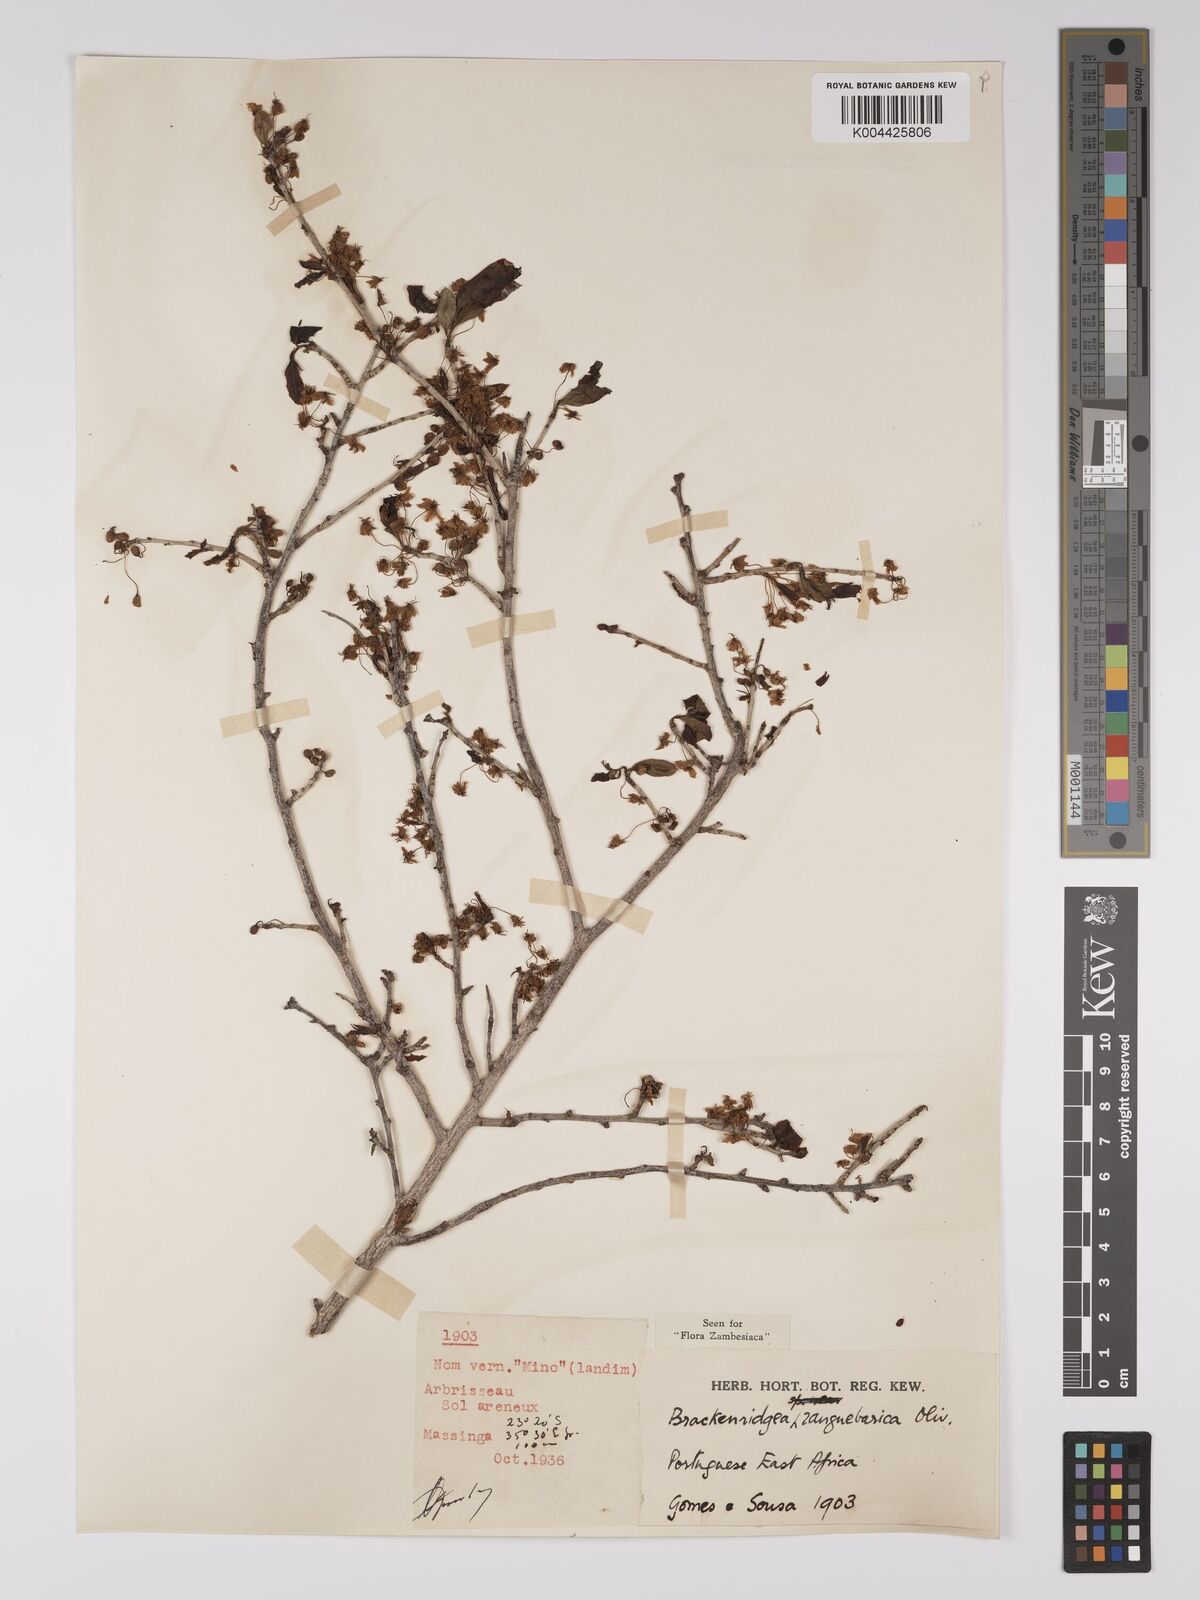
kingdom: Plantae
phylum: Tracheophyta
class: Magnoliopsida
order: Malpighiales
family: Ochnaceae
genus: Brackenridgea
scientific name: Brackenridgea zanguebarica
